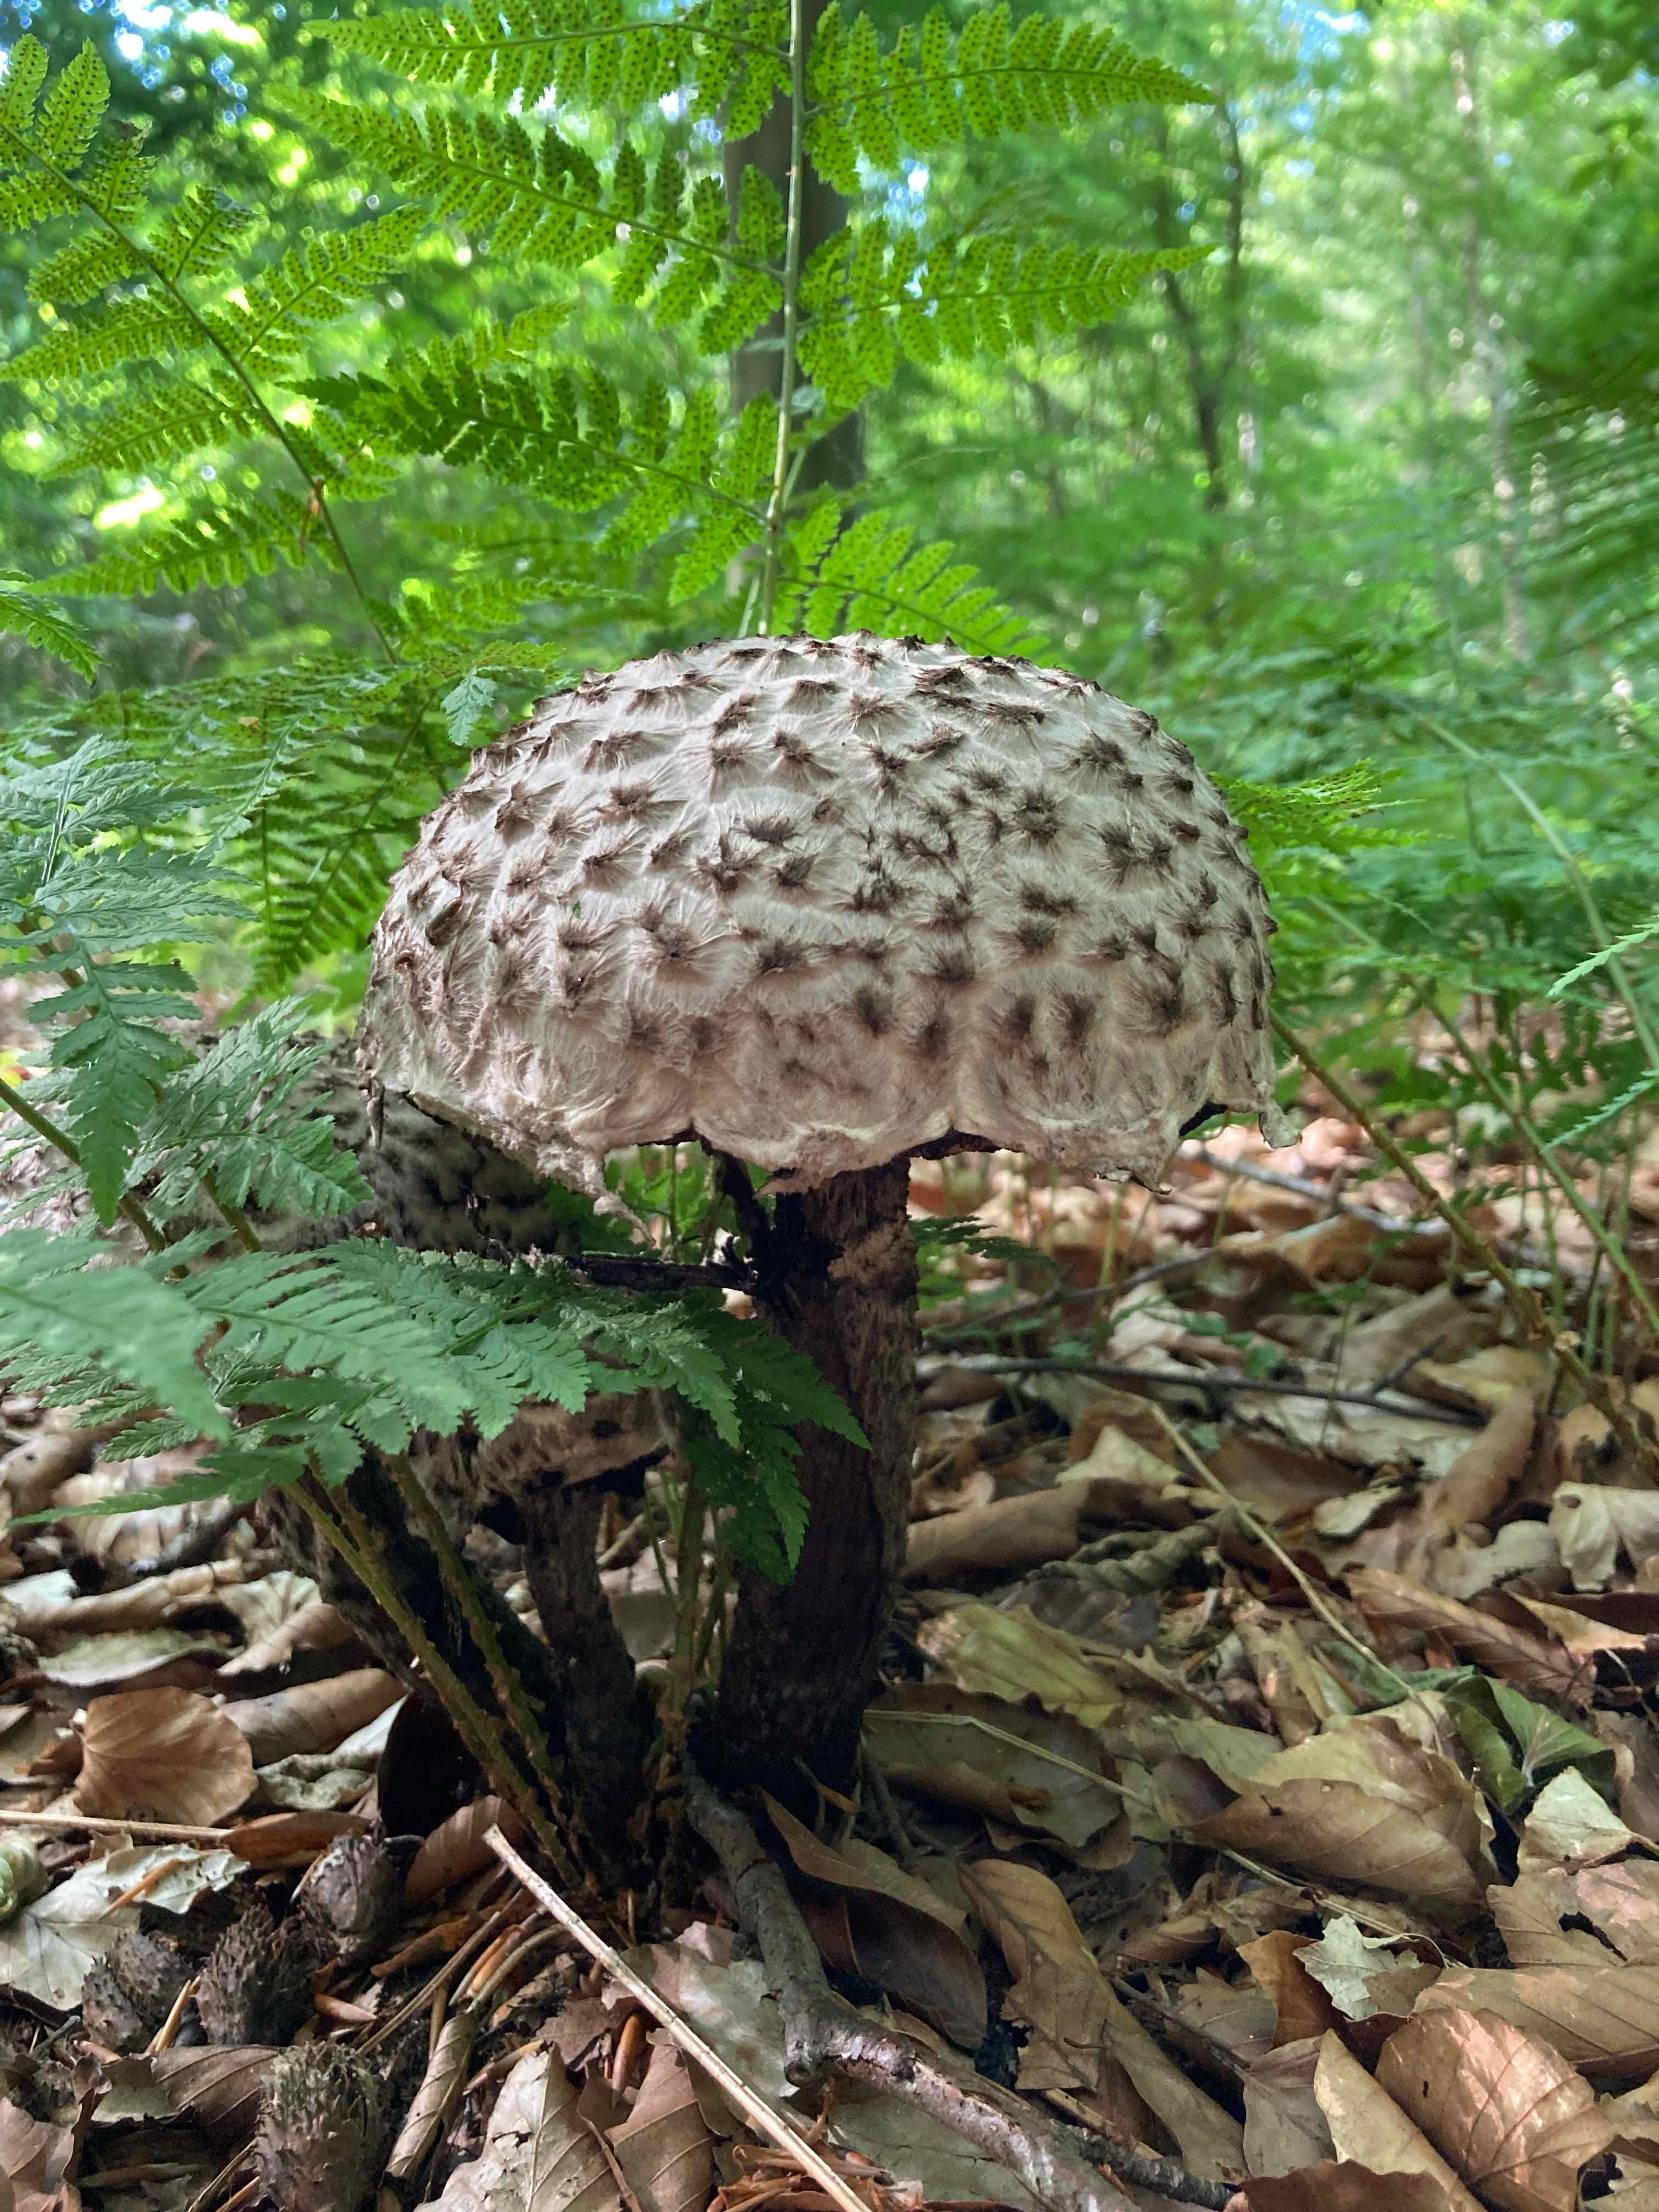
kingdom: Fungi
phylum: Basidiomycota
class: Agaricomycetes
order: Boletales
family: Boletaceae
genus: Strobilomyces
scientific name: Strobilomyces strobilaceus
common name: koglerørhat
